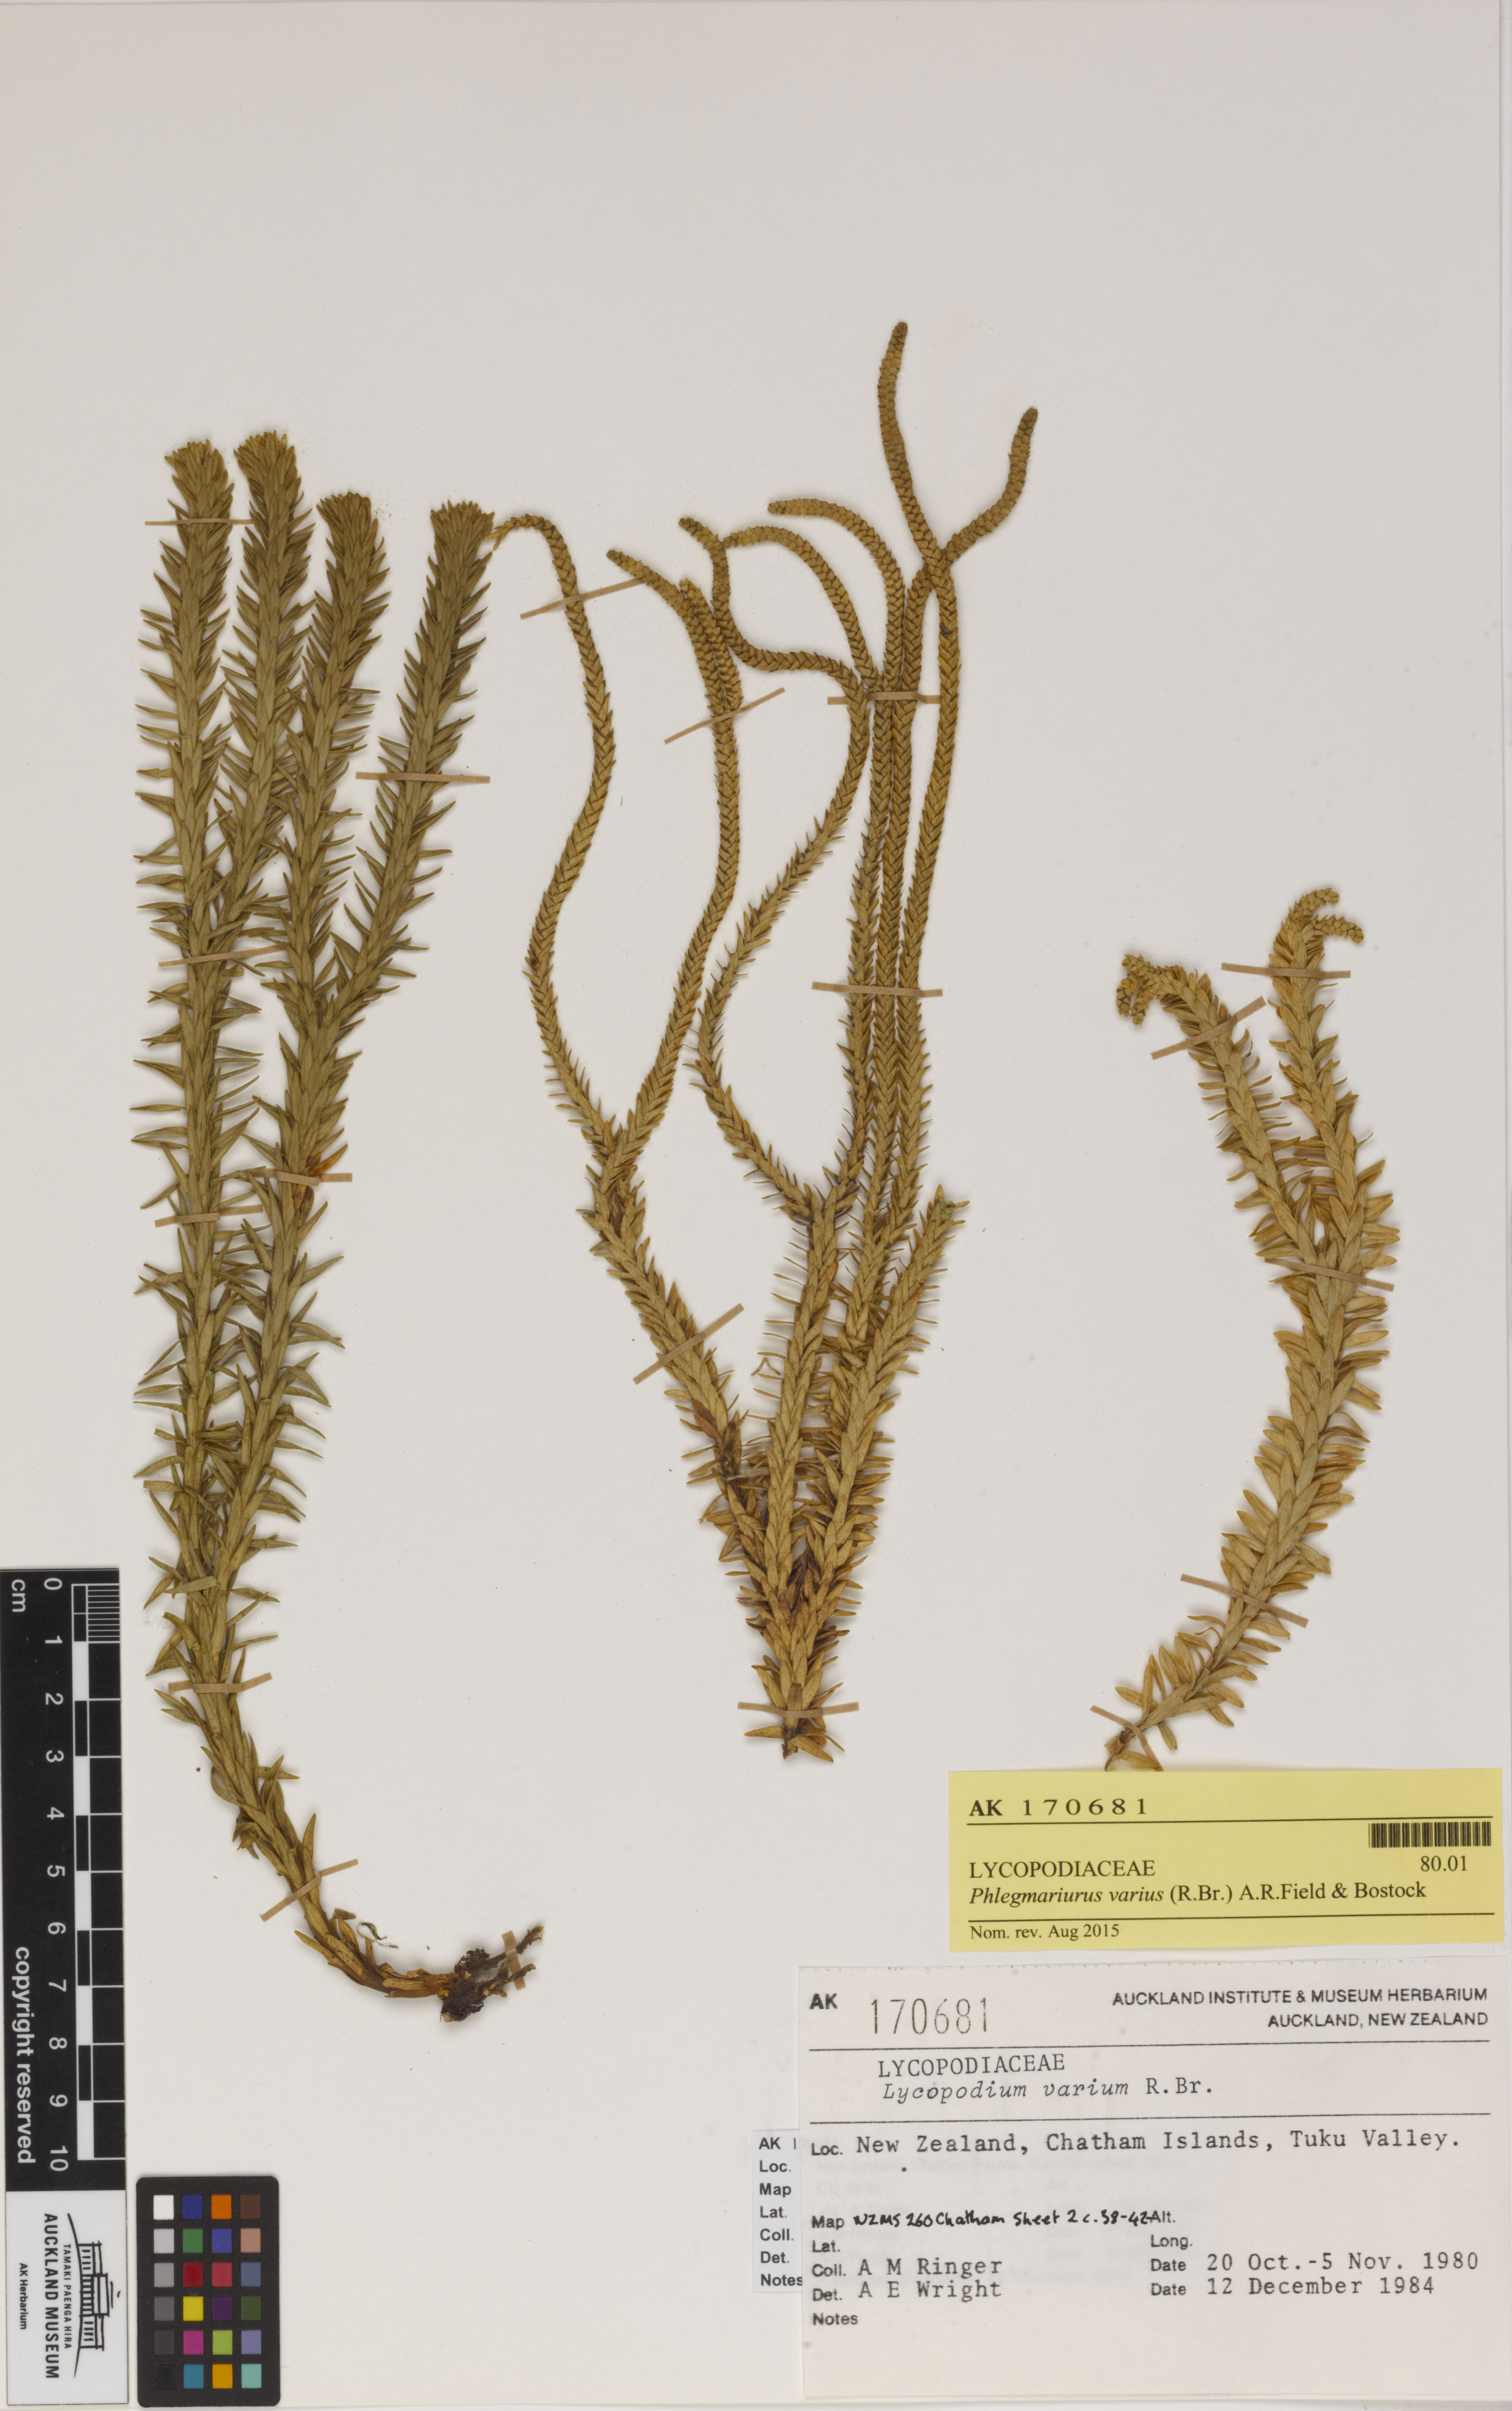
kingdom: Plantae
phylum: Tracheophyta
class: Lycopodiopsida
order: Lycopodiales
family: Lycopodiaceae
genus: Phlegmariurus
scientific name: Phlegmariurus varius
